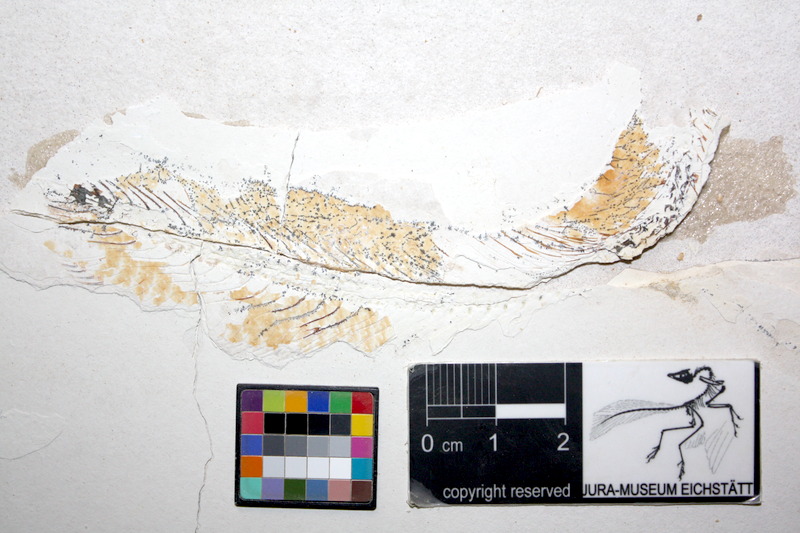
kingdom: Animalia
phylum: Chordata
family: Allothrissopidae
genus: Allothrissops
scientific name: Allothrissops mesogaster
